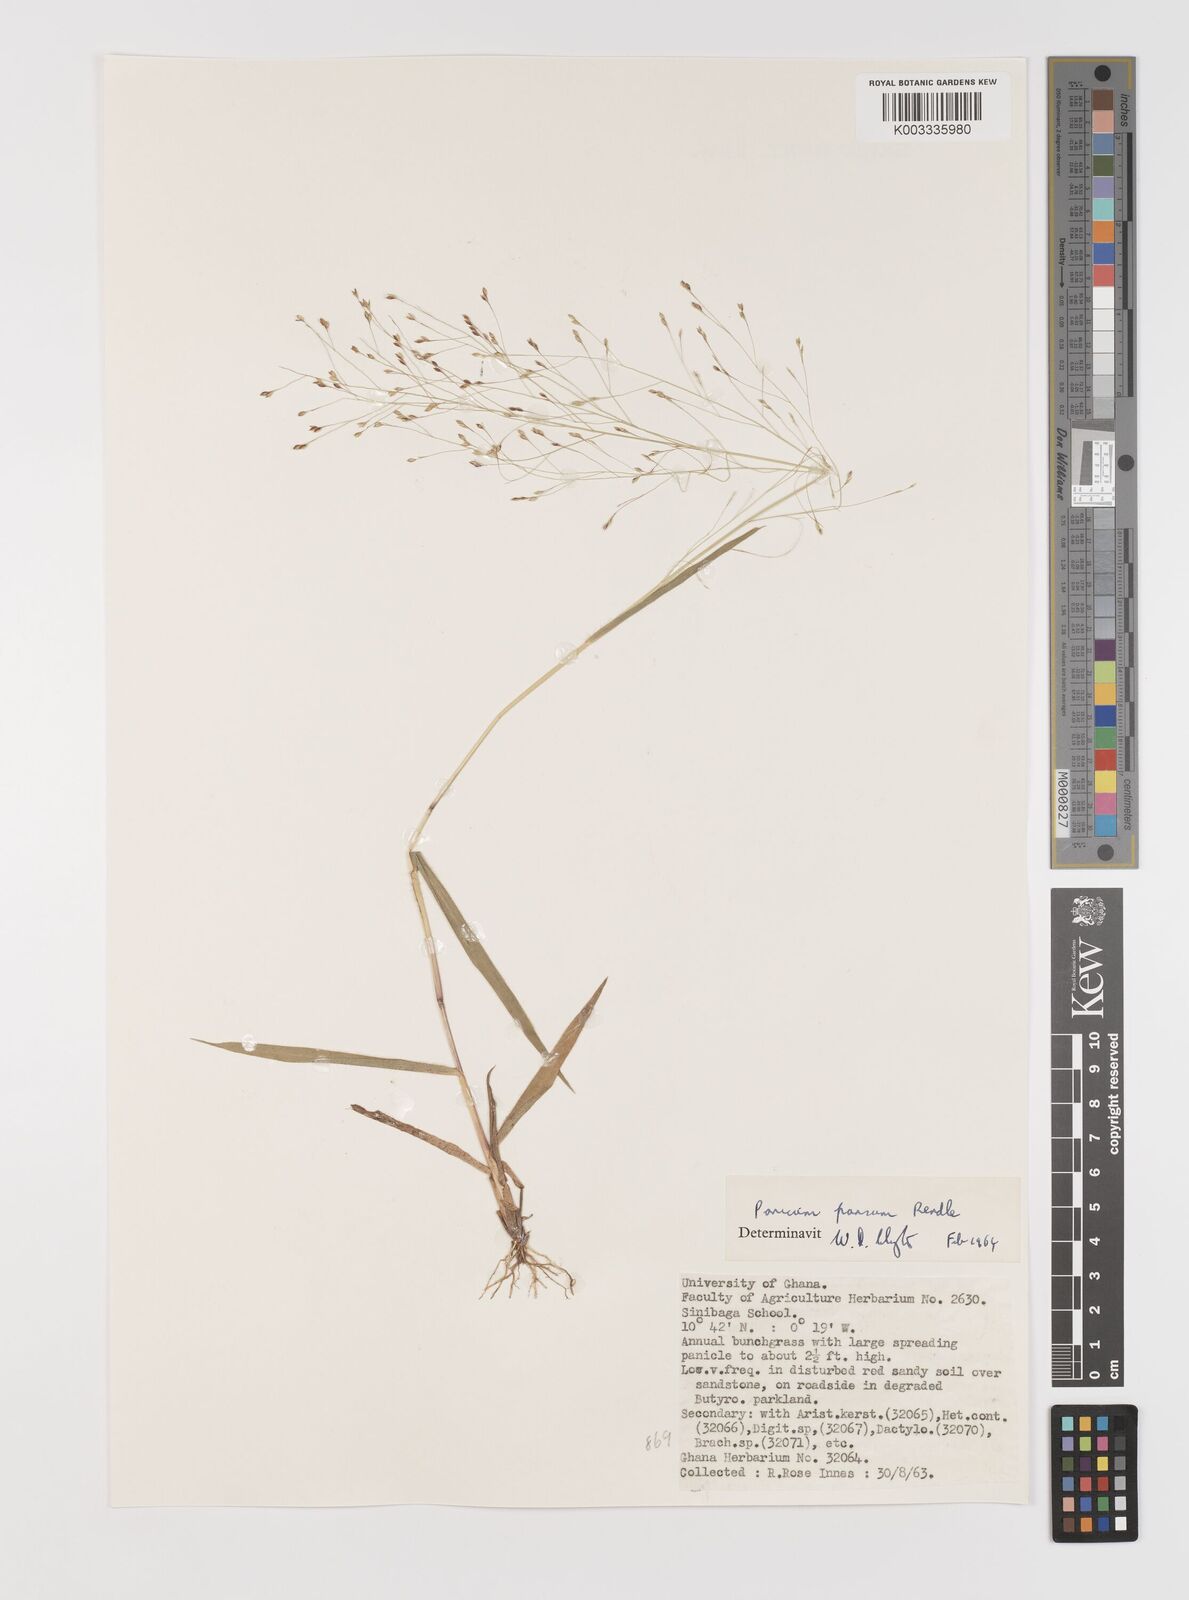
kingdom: Plantae
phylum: Tracheophyta
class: Liliopsida
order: Poales
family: Poaceae
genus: Panicum
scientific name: Panicum pansum
